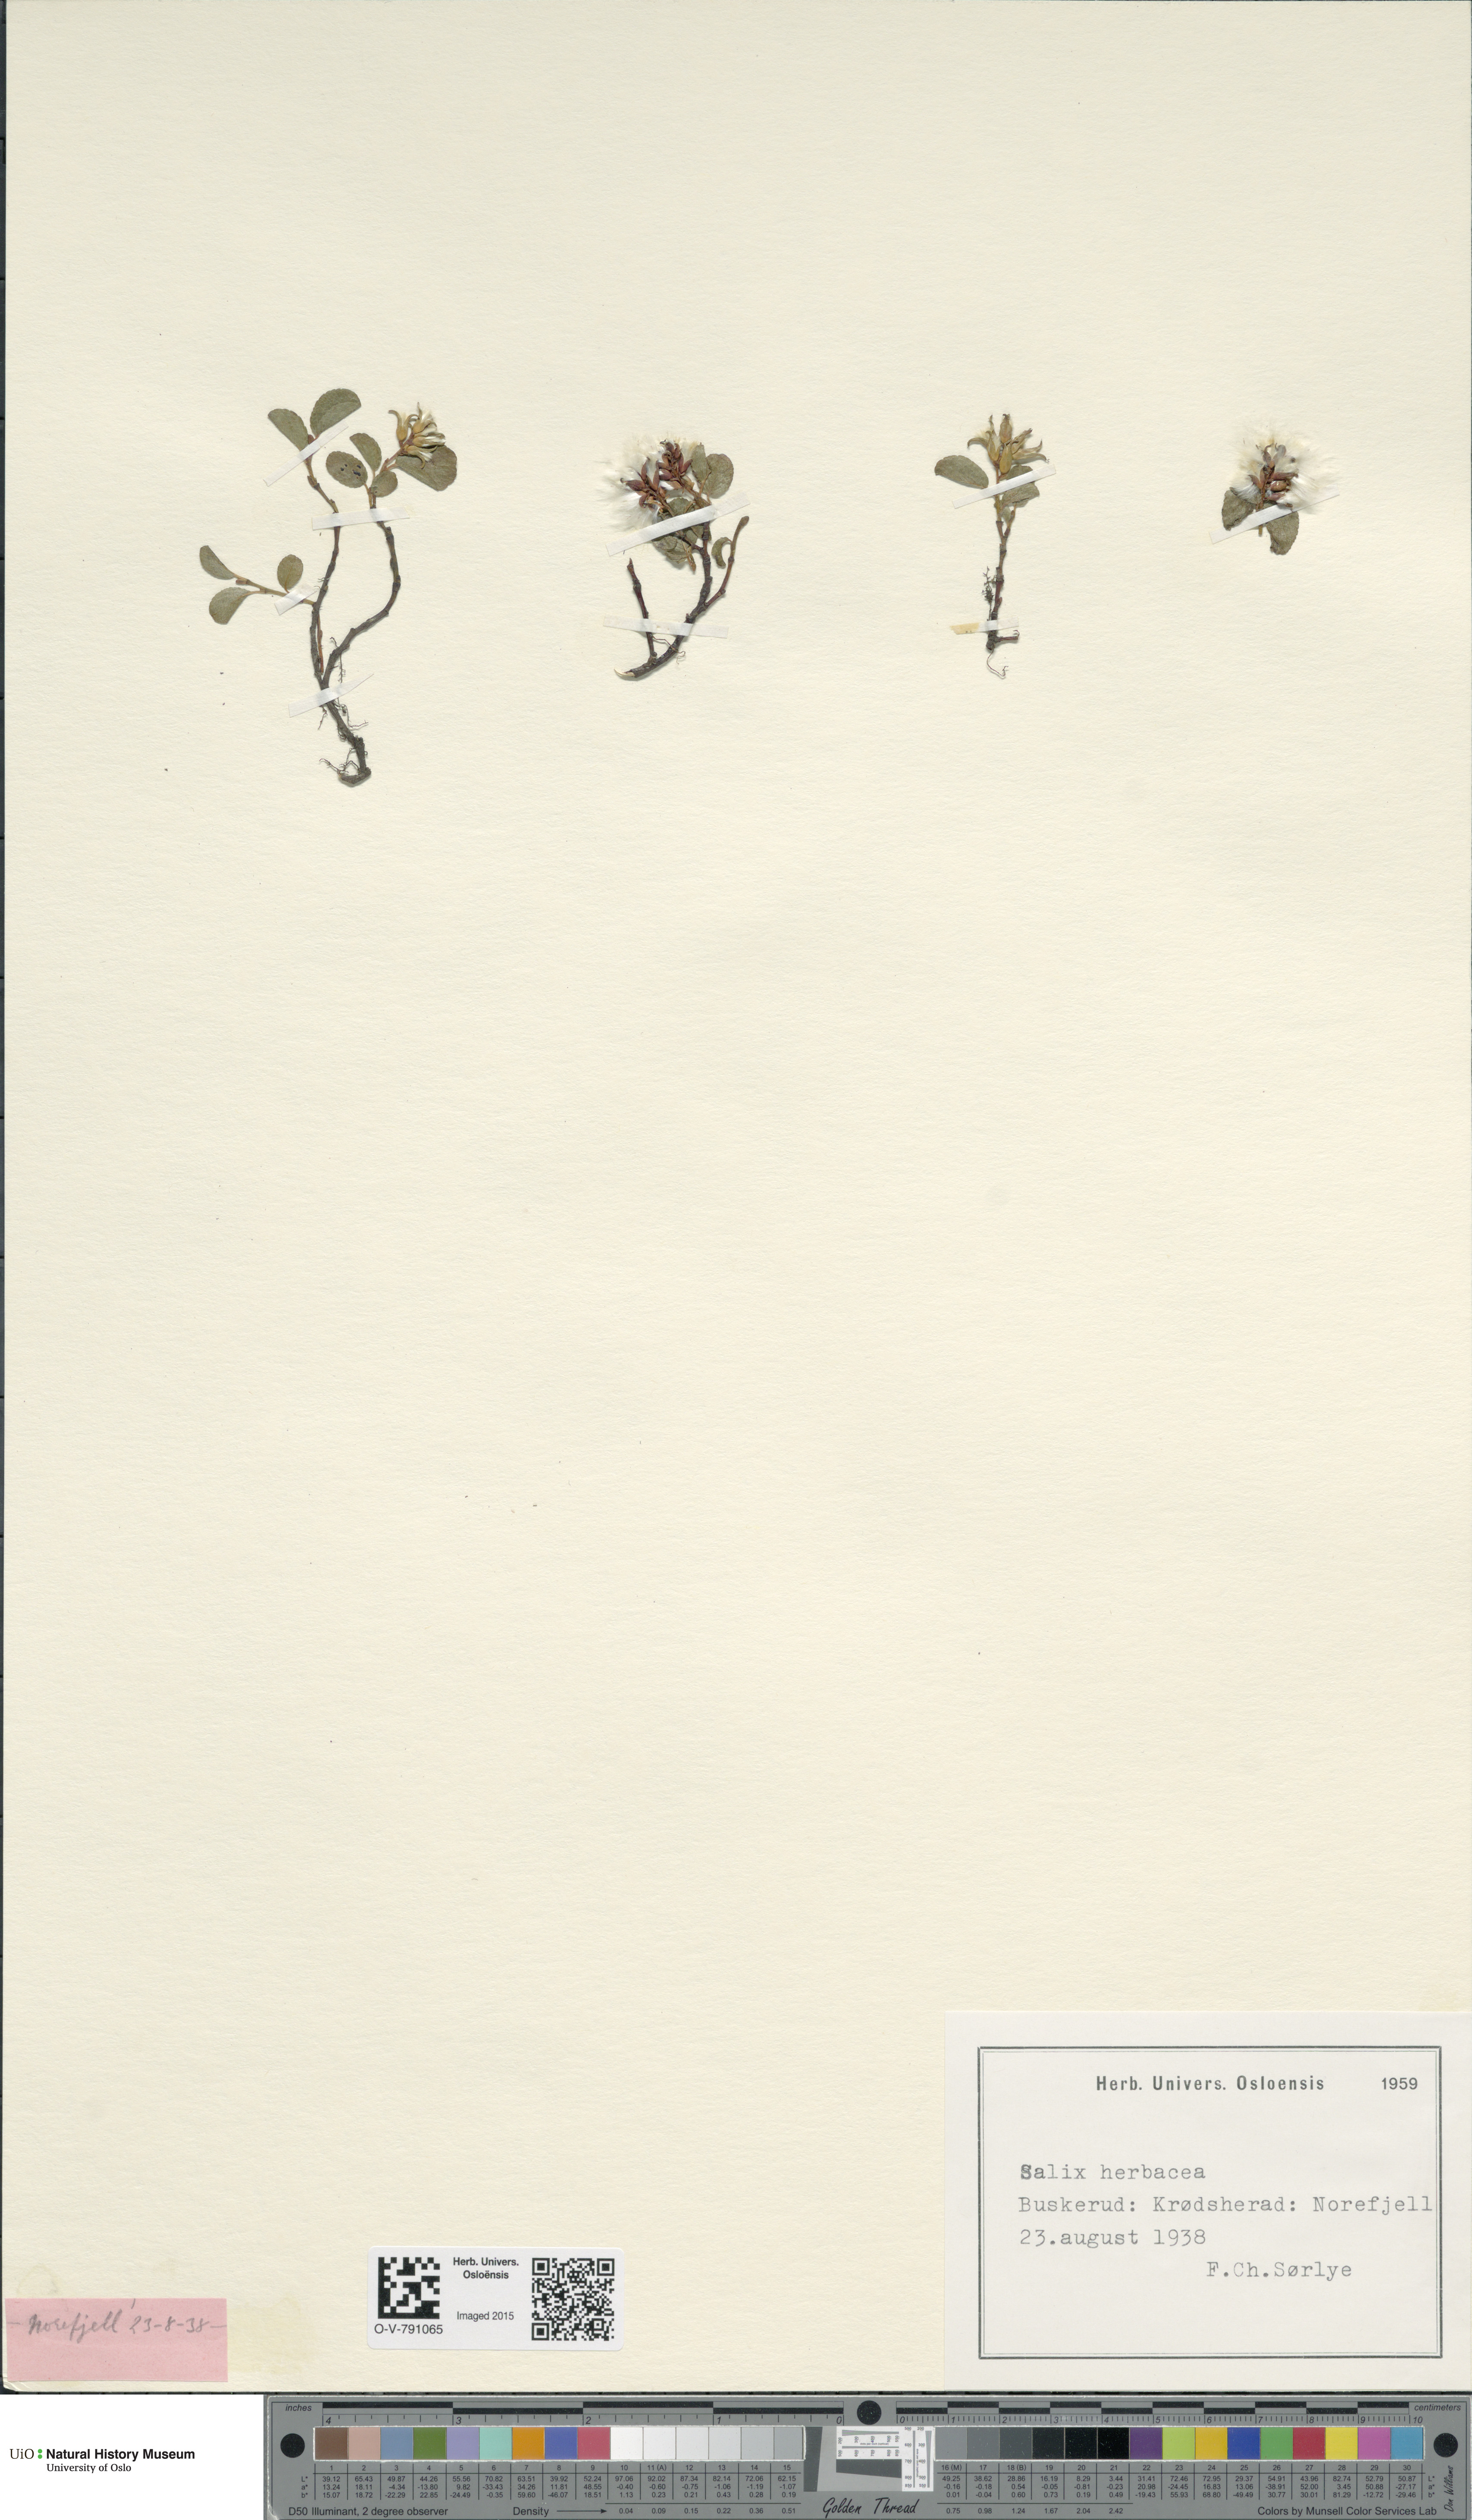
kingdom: Plantae
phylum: Tracheophyta
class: Magnoliopsida
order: Malpighiales
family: Salicaceae
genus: Salix
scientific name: Salix herbacea
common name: Dwarf willow
